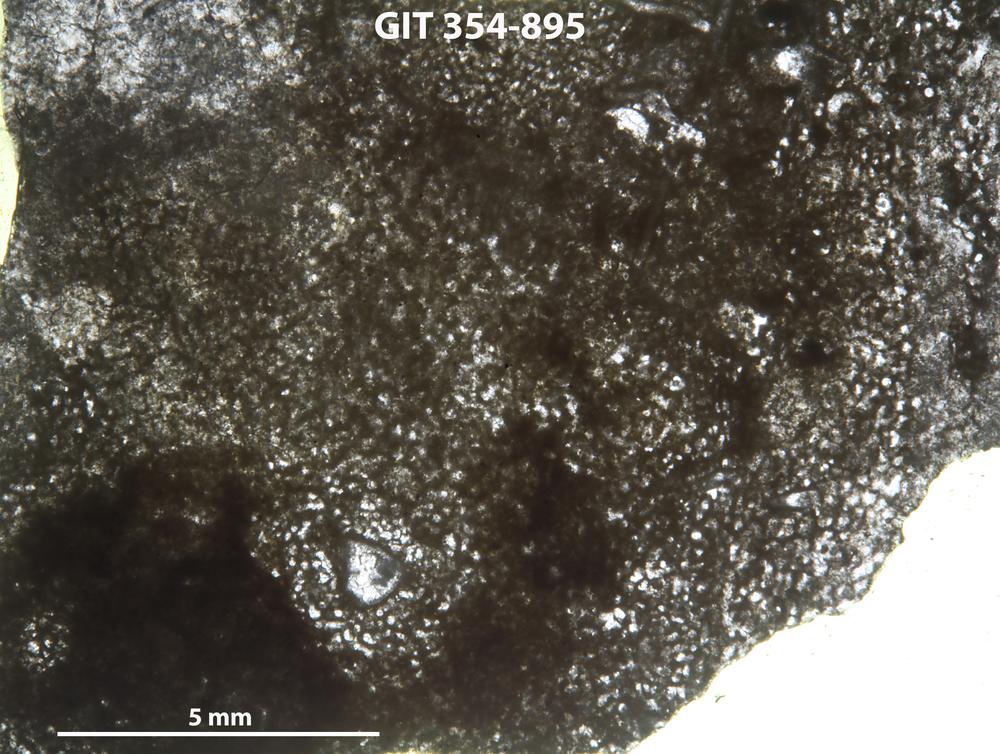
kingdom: Animalia
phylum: Porifera
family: Ecclimadictyidae
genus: Ecclimadictyon
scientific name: Ecclimadictyon porkuni
